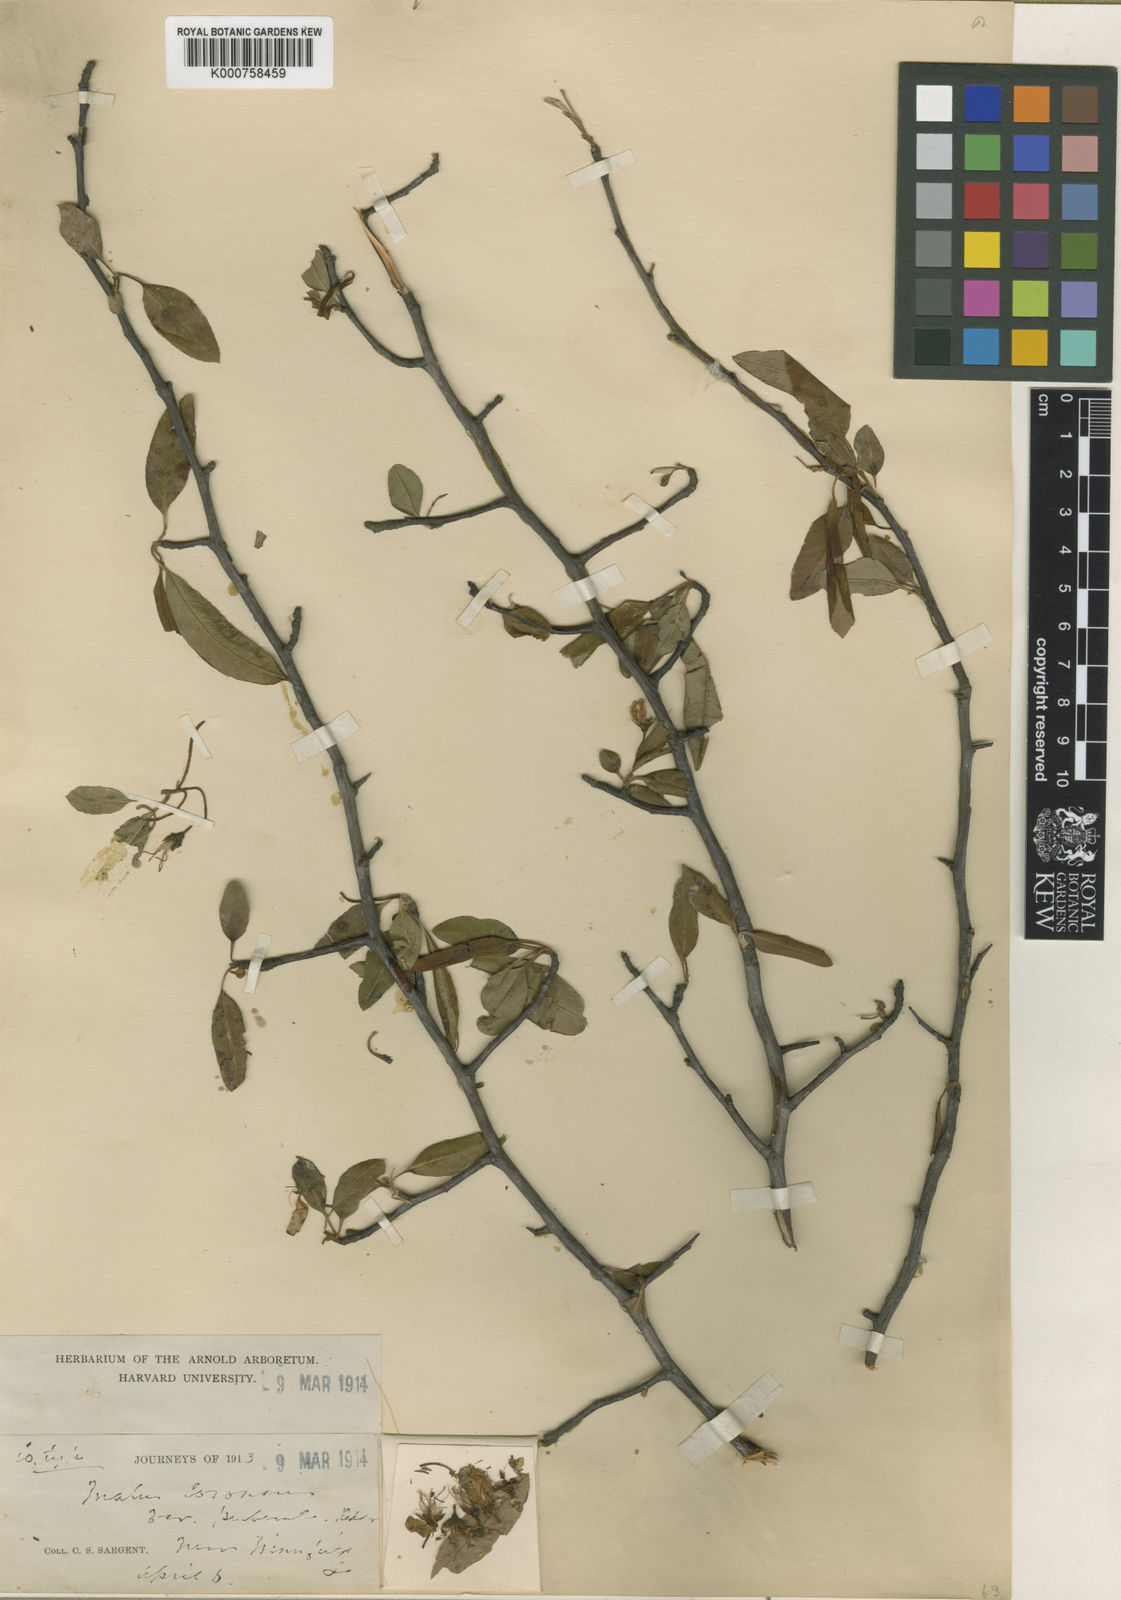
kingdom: Plantae
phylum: Tracheophyta
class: Magnoliopsida
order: Rosales
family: Rosaceae
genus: Malus
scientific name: Malus angustifolia
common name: Southern crab apple
